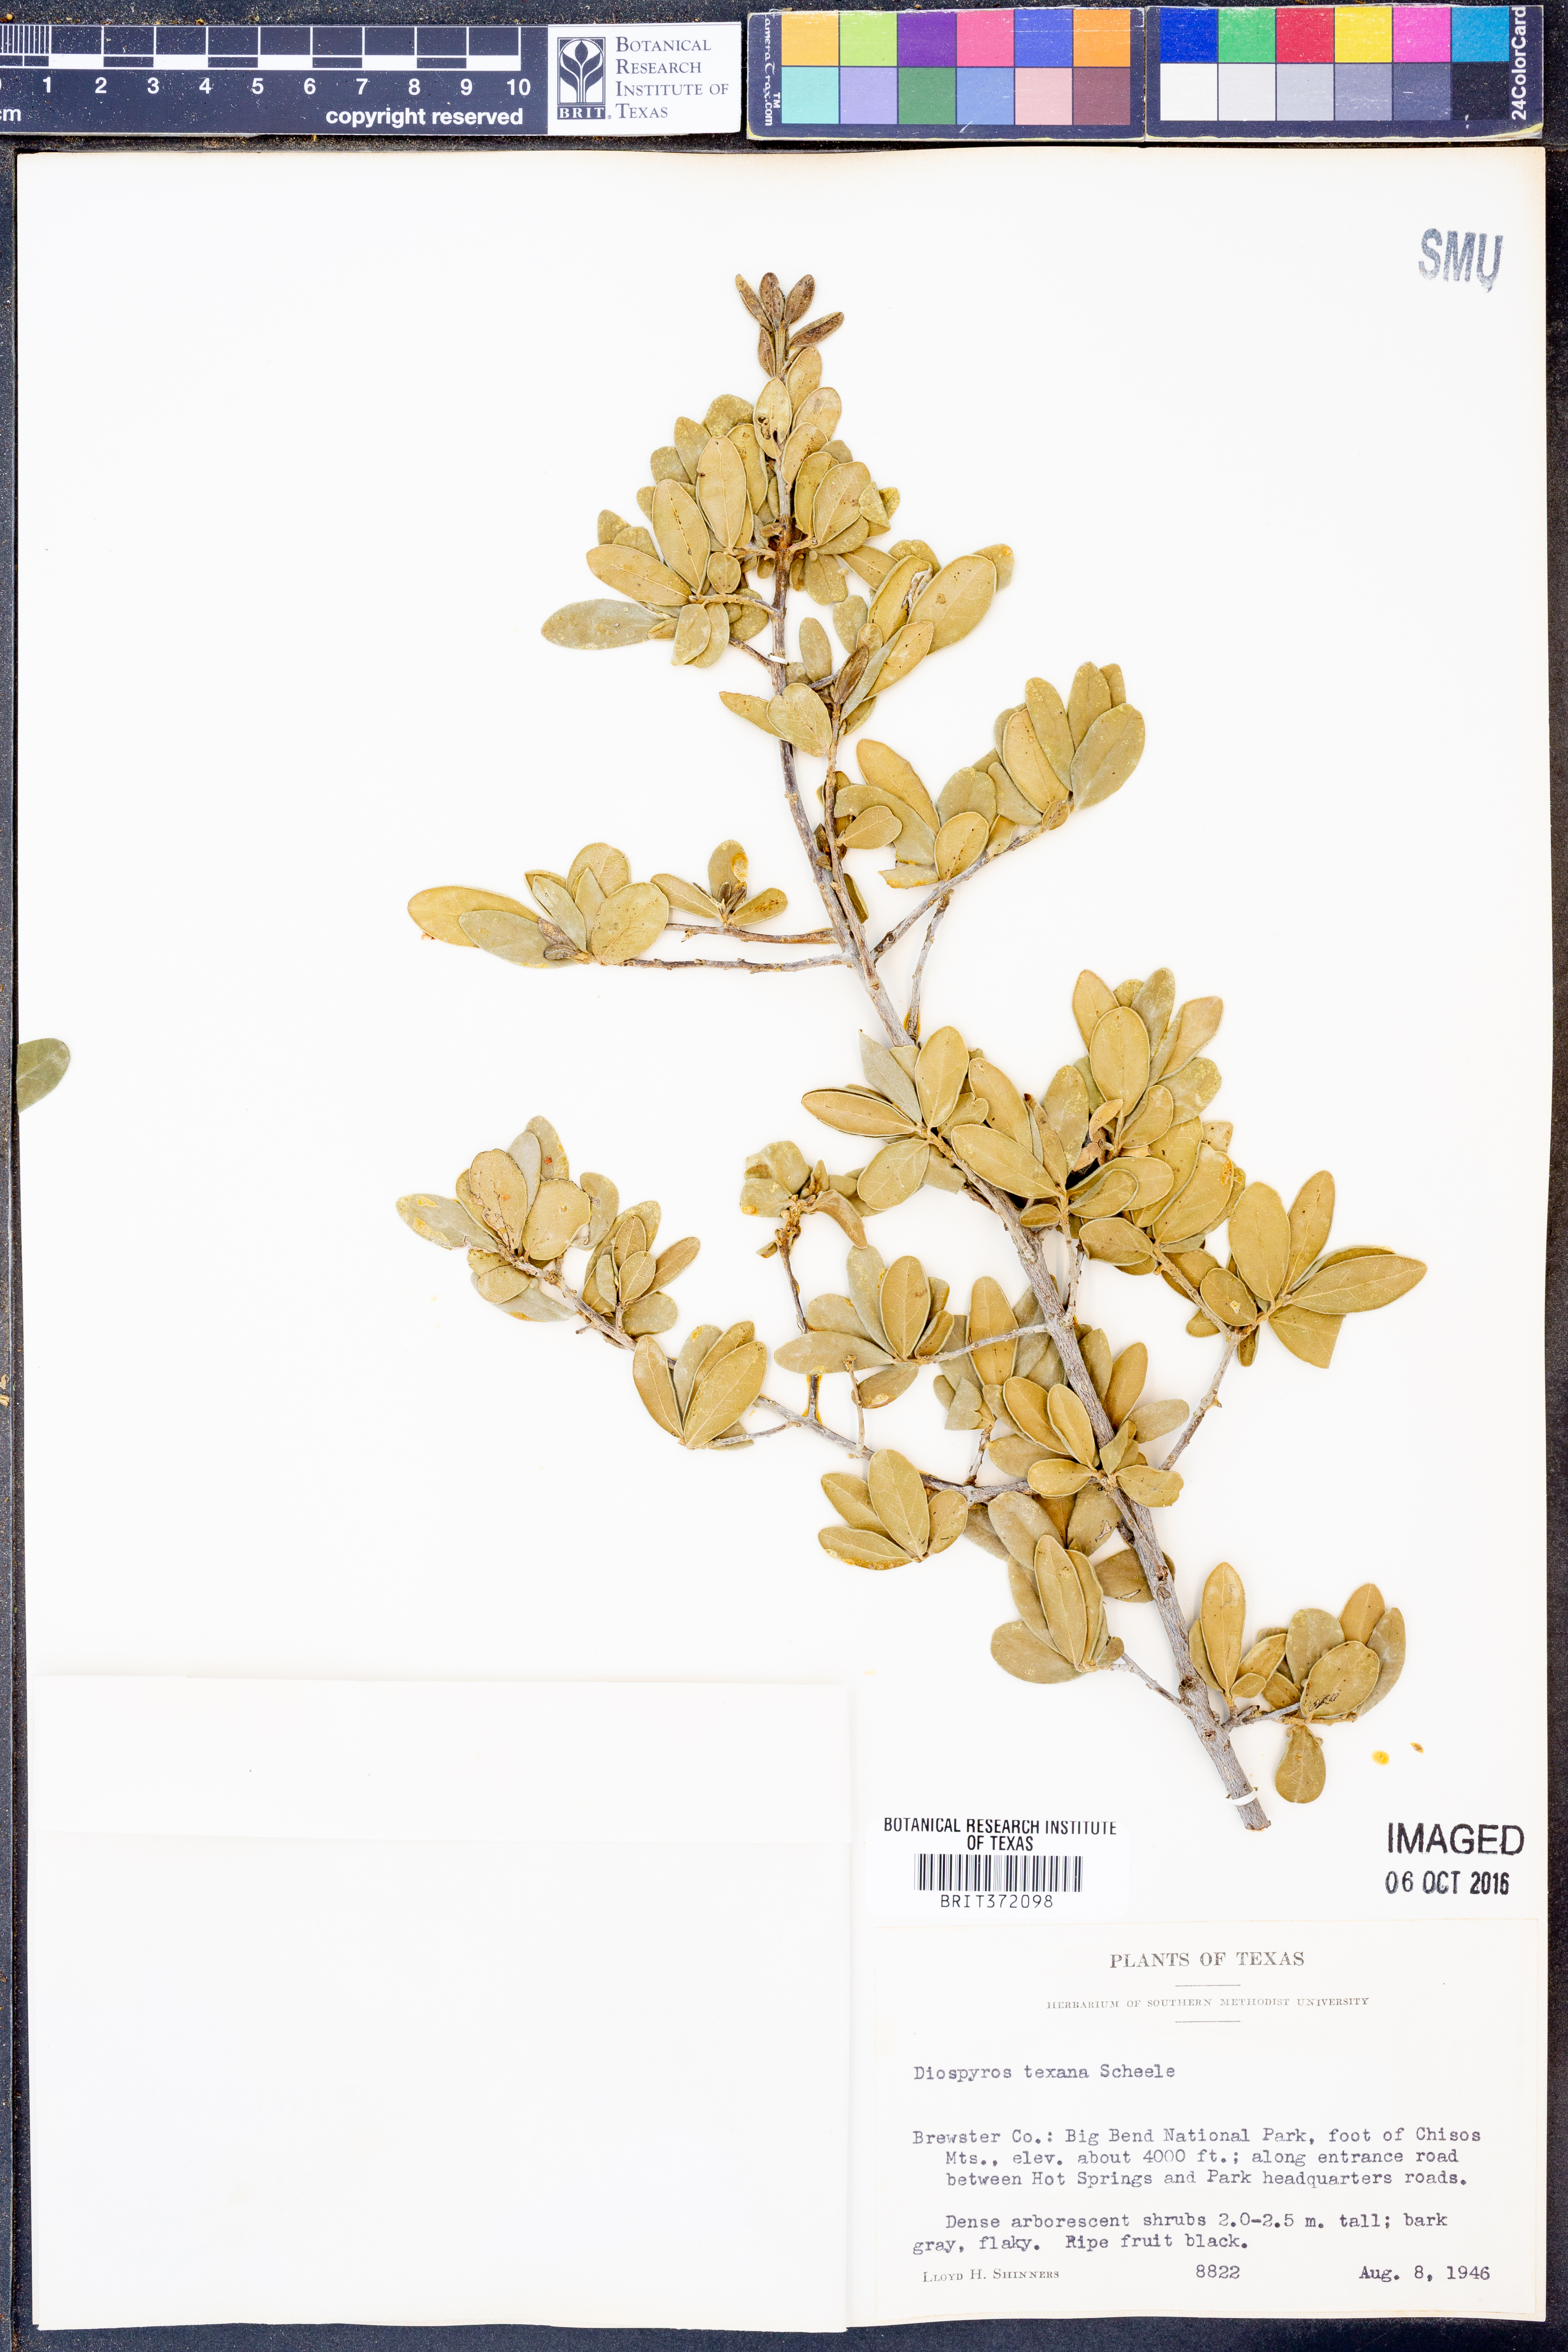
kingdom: Plantae
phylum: Tracheophyta
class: Magnoliopsida
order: Ericales
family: Ebenaceae
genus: Diospyros
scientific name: Diospyros texana
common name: Texas persimmon
